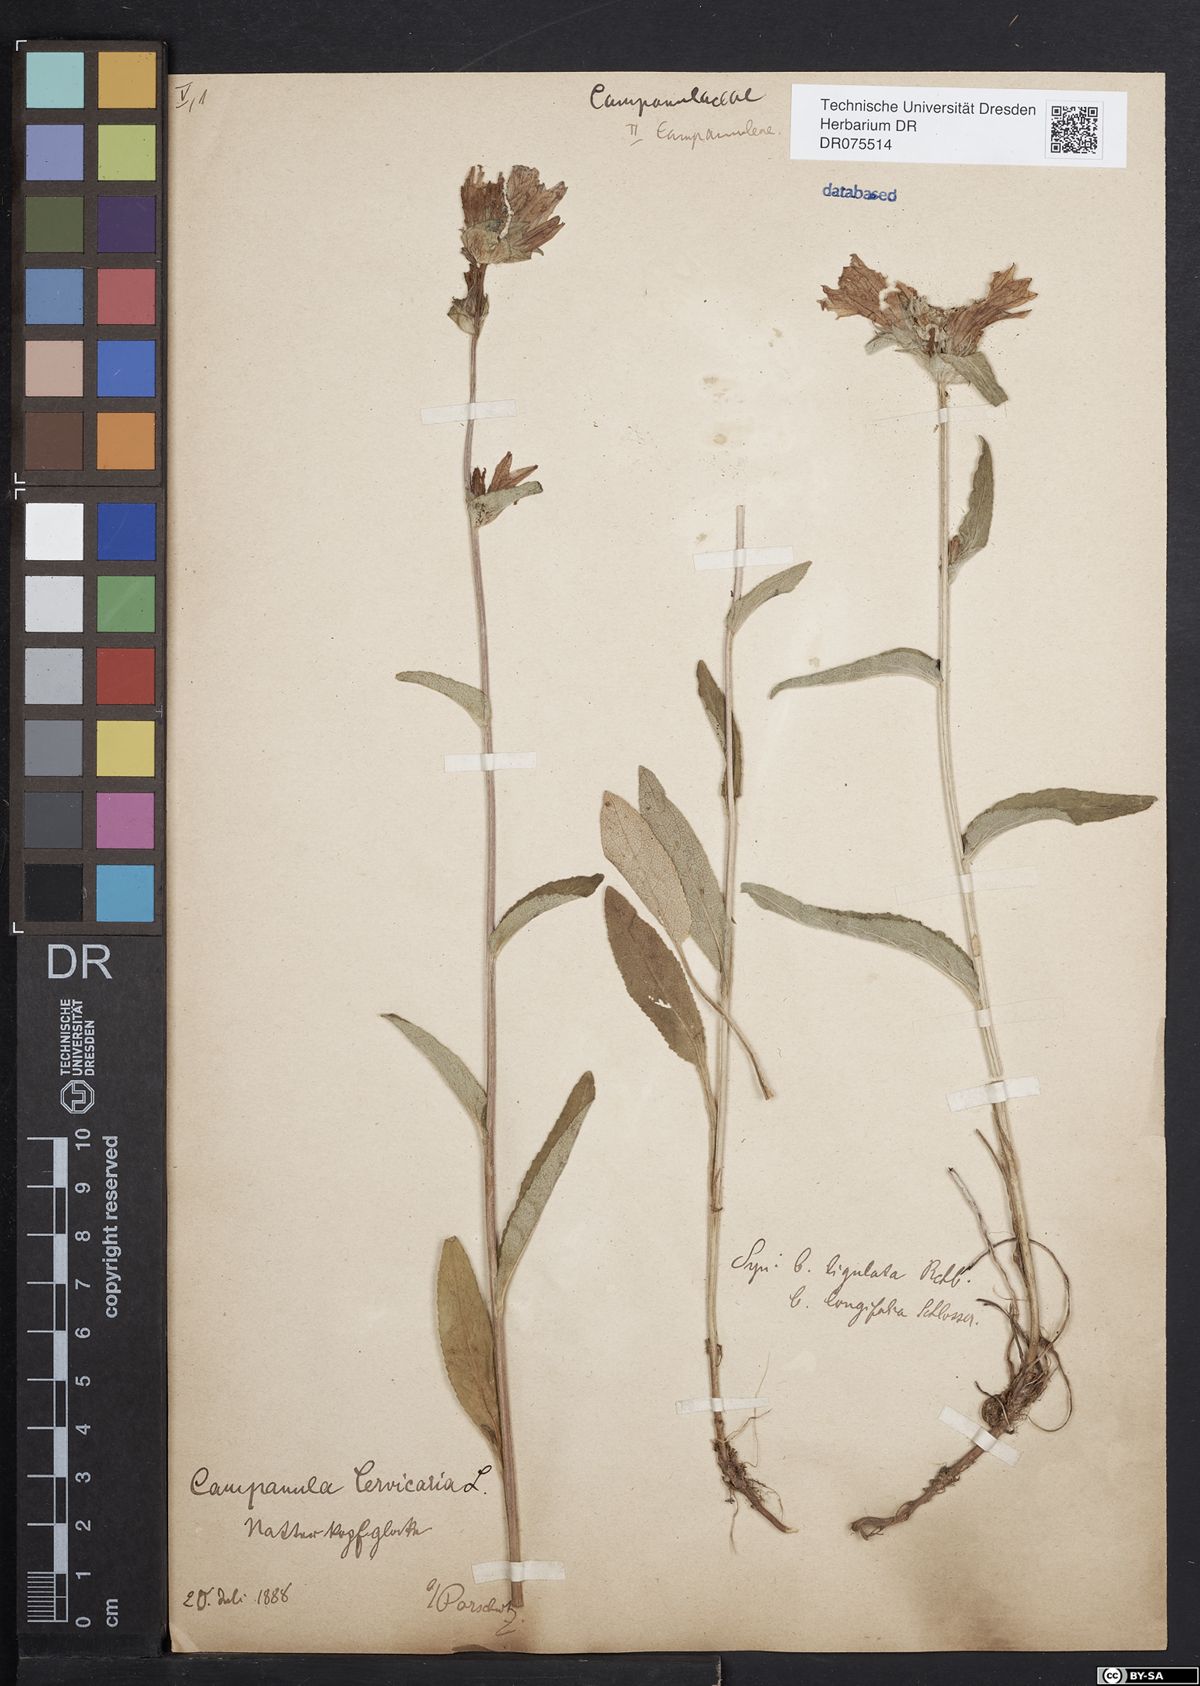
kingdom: Plantae
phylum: Tracheophyta
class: Magnoliopsida
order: Asterales
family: Campanulaceae
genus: Campanula
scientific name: Campanula cervicaria
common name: Bristly bellflower
